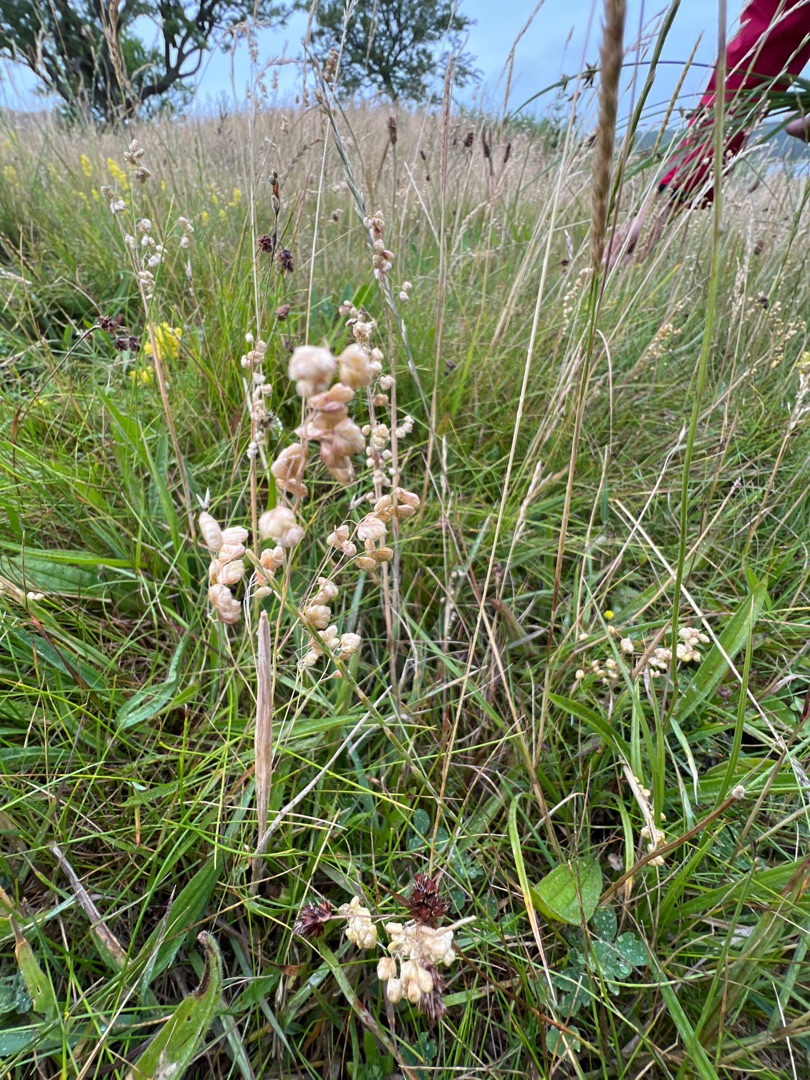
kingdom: Plantae
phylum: Tracheophyta
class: Liliopsida
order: Poales
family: Poaceae
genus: Briza
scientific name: Briza media
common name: Hjertegræs
